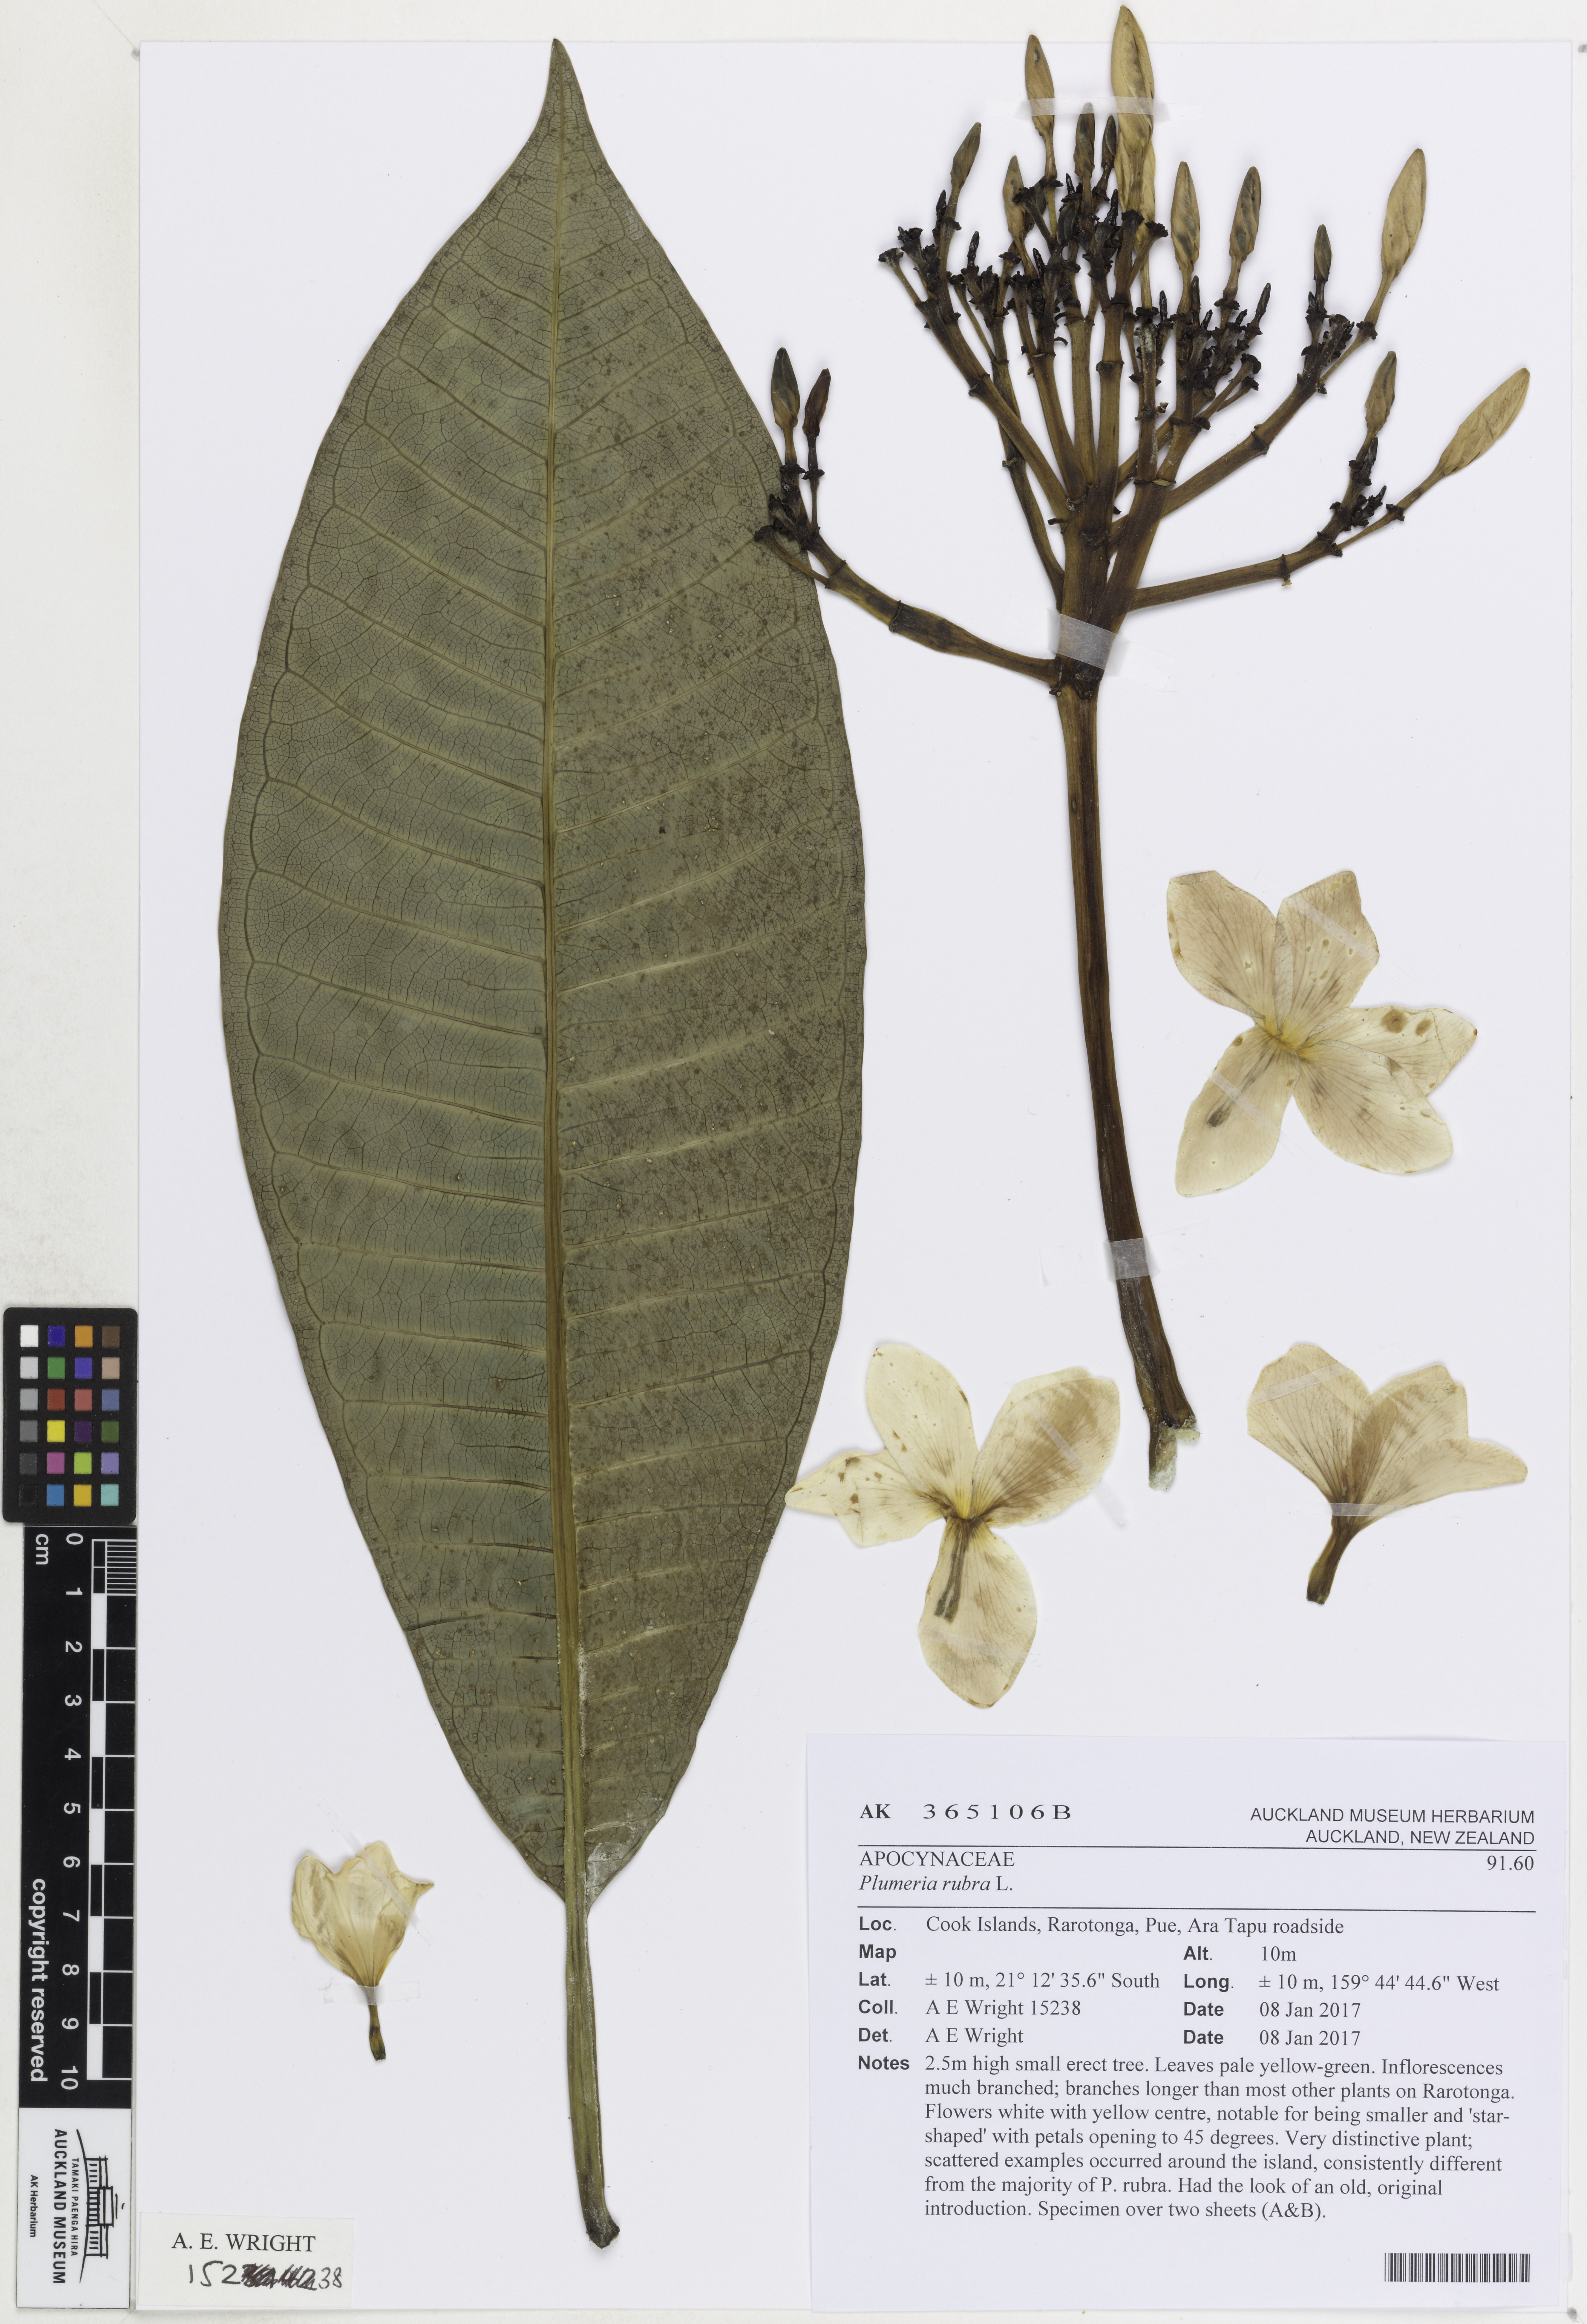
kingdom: Plantae
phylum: Tracheophyta
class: Magnoliopsida
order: Gentianales
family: Apocynaceae
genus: Plumeria
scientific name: Plumeria rubra
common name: Pagoda-tree
